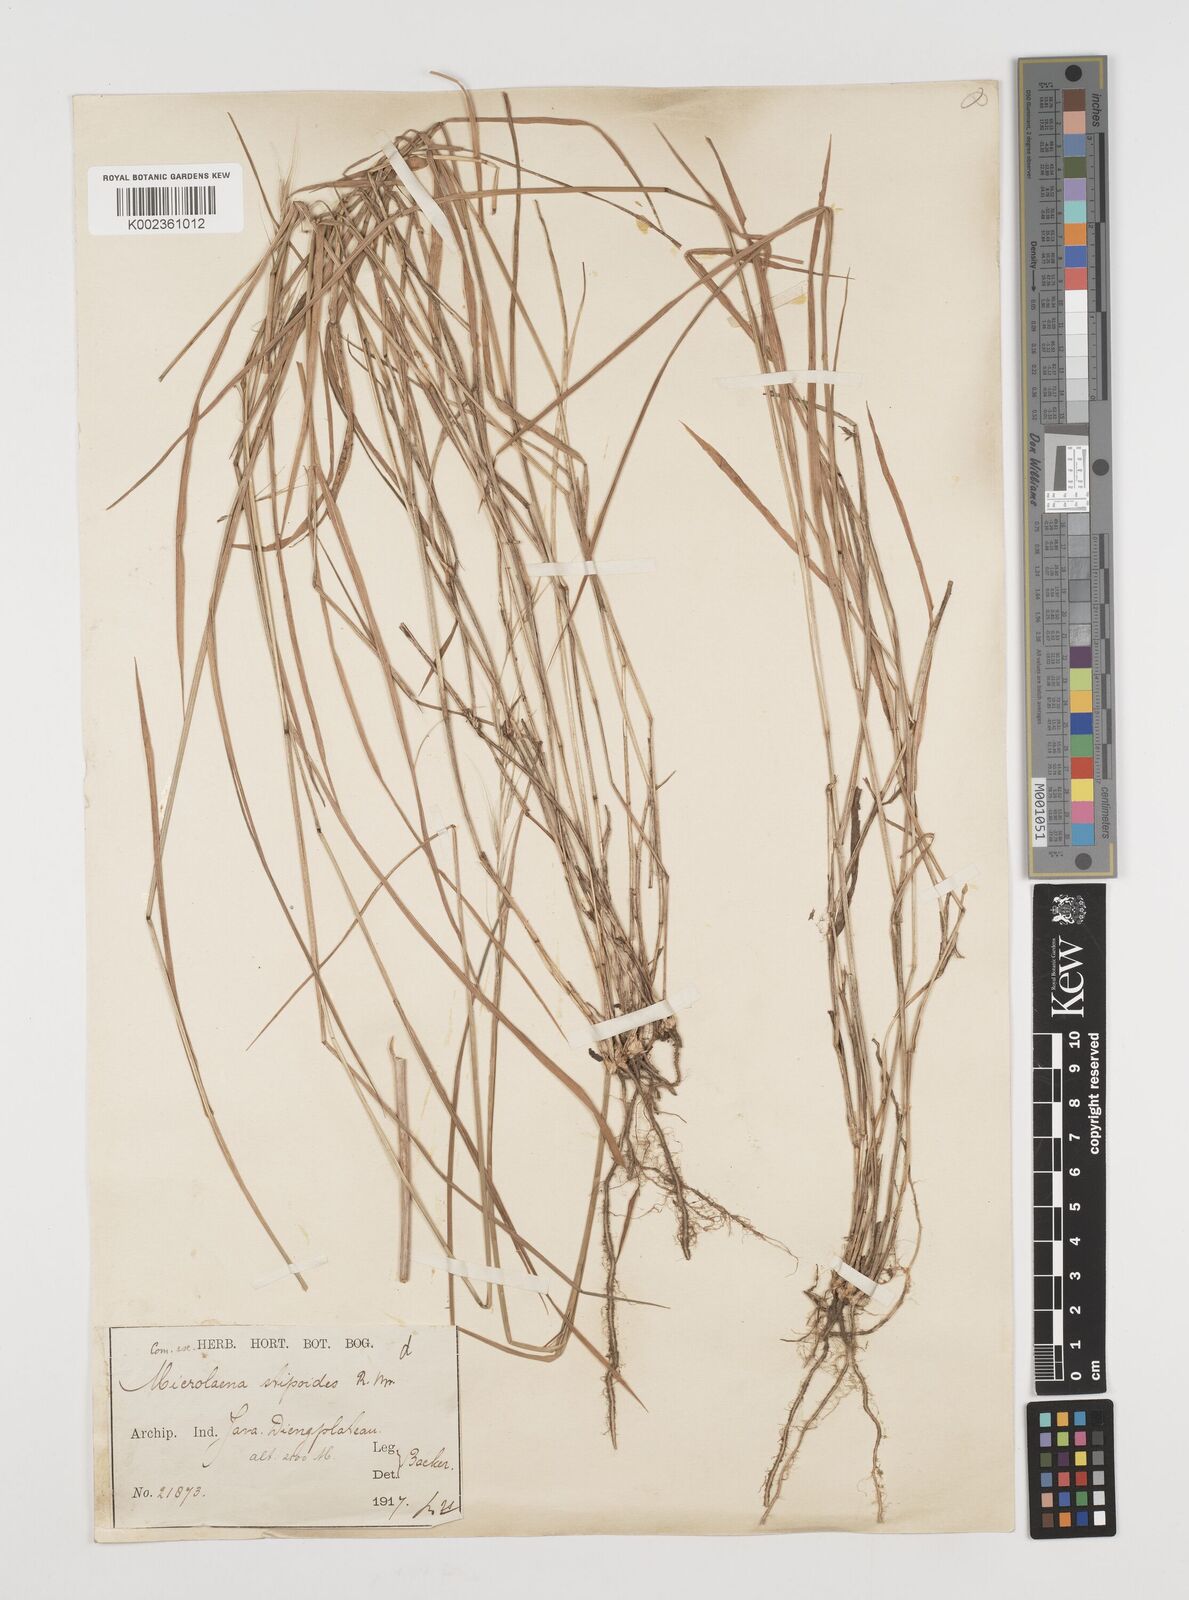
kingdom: Plantae
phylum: Tracheophyta
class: Liliopsida
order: Poales
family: Poaceae
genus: Microlaena
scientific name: Microlaena stipoides
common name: Meadow ricegrass
